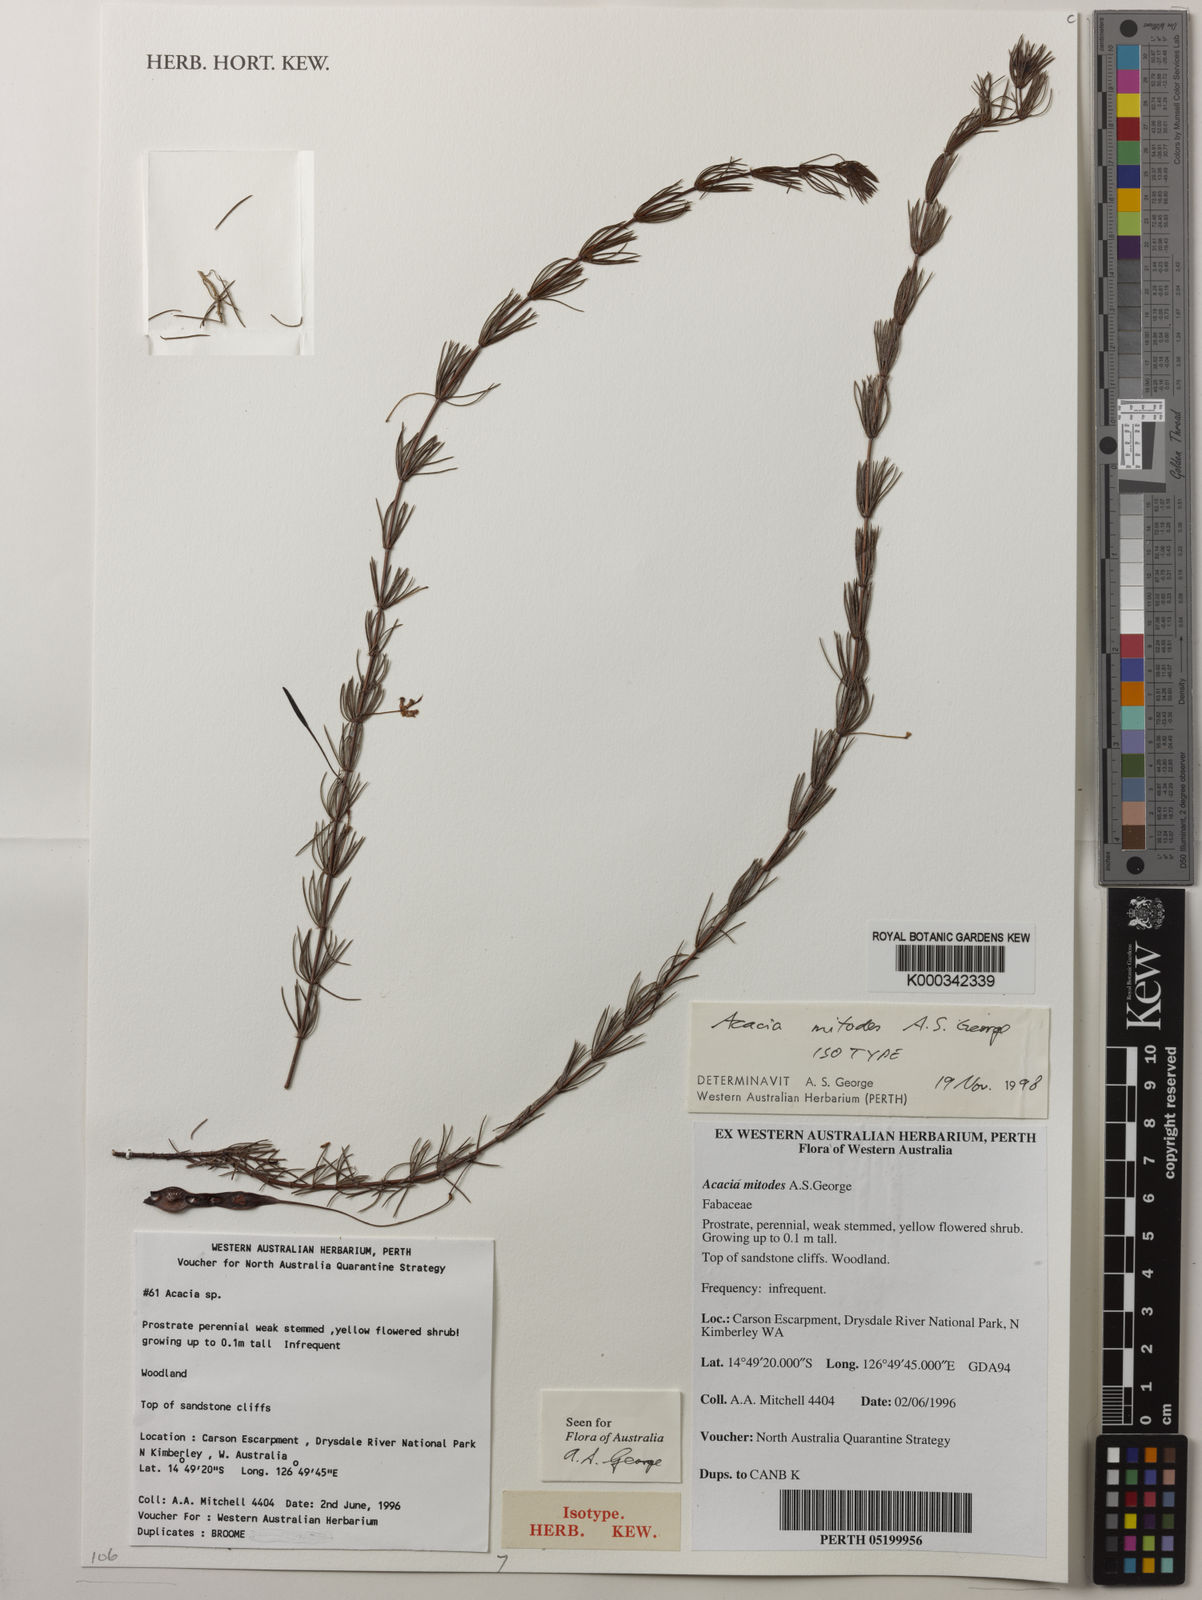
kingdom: Plantae
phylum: Tracheophyta
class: Magnoliopsida
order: Fabales
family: Fabaceae
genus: Acacia
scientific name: Acacia mitodes
